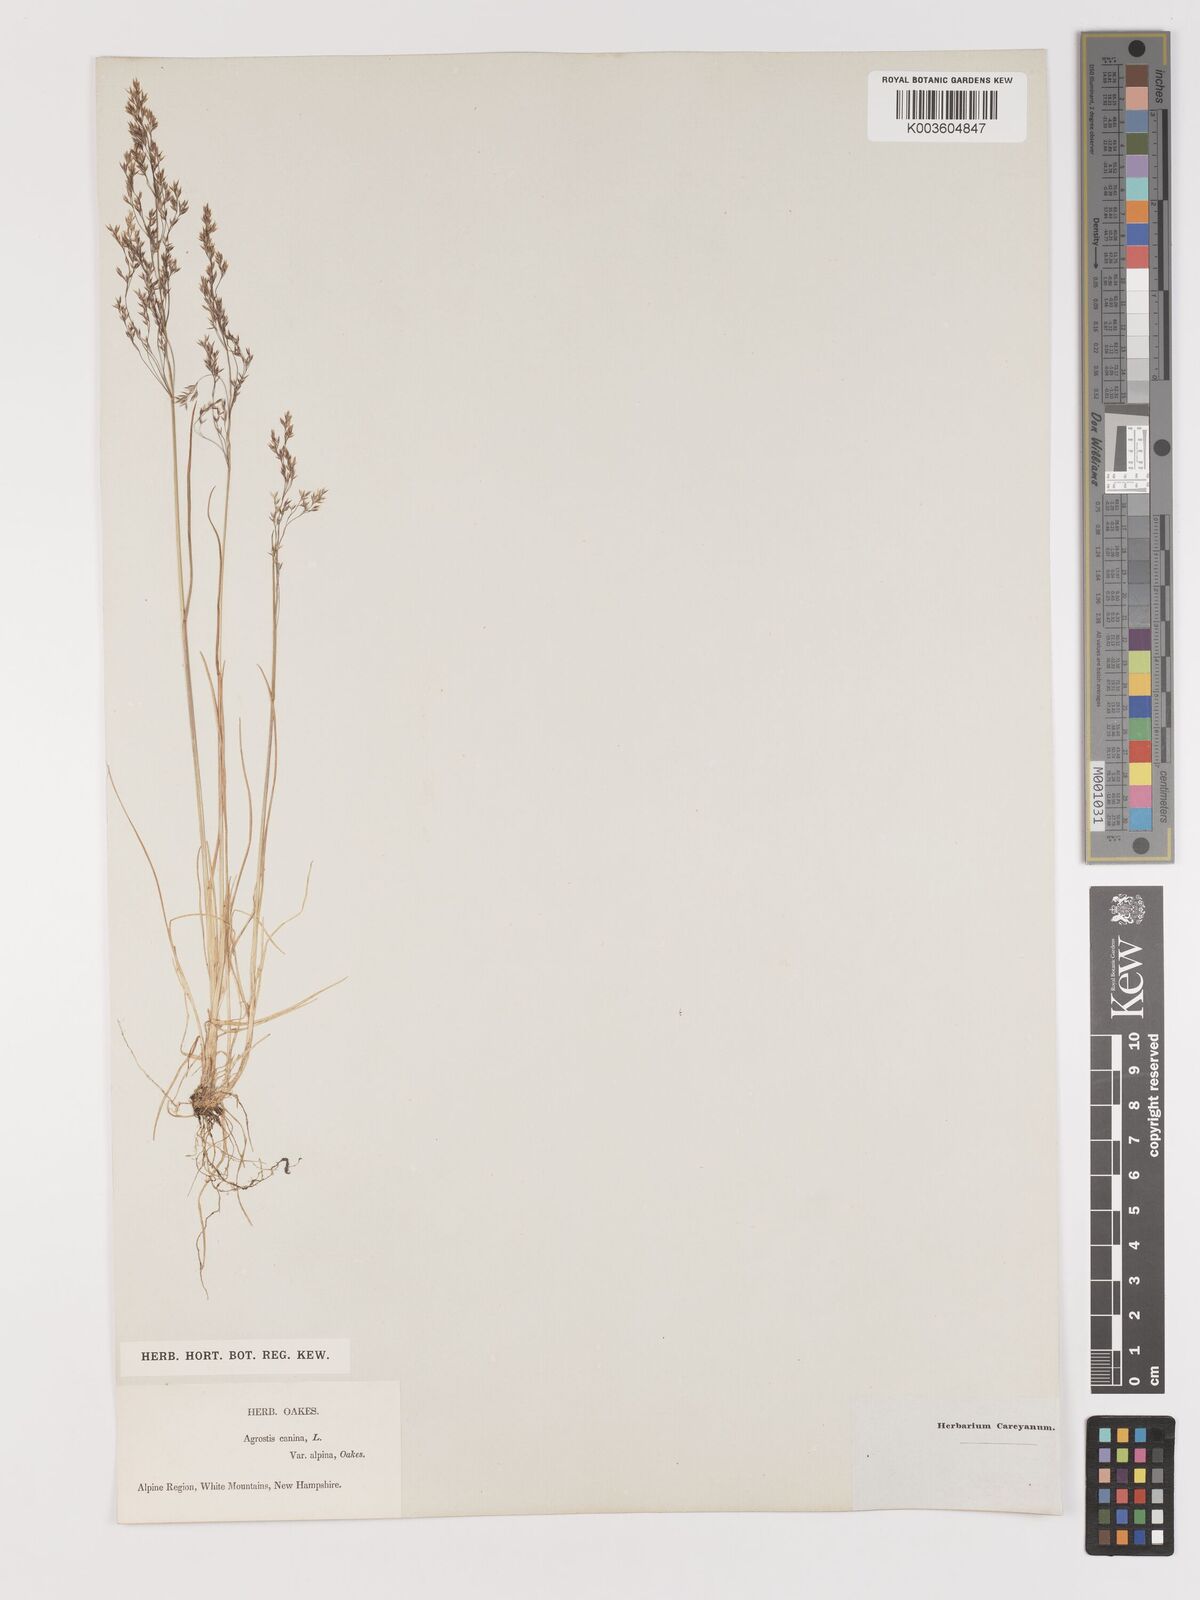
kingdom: Plantae
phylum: Tracheophyta
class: Liliopsida
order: Poales
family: Poaceae
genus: Agrostis
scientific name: Agrostis
